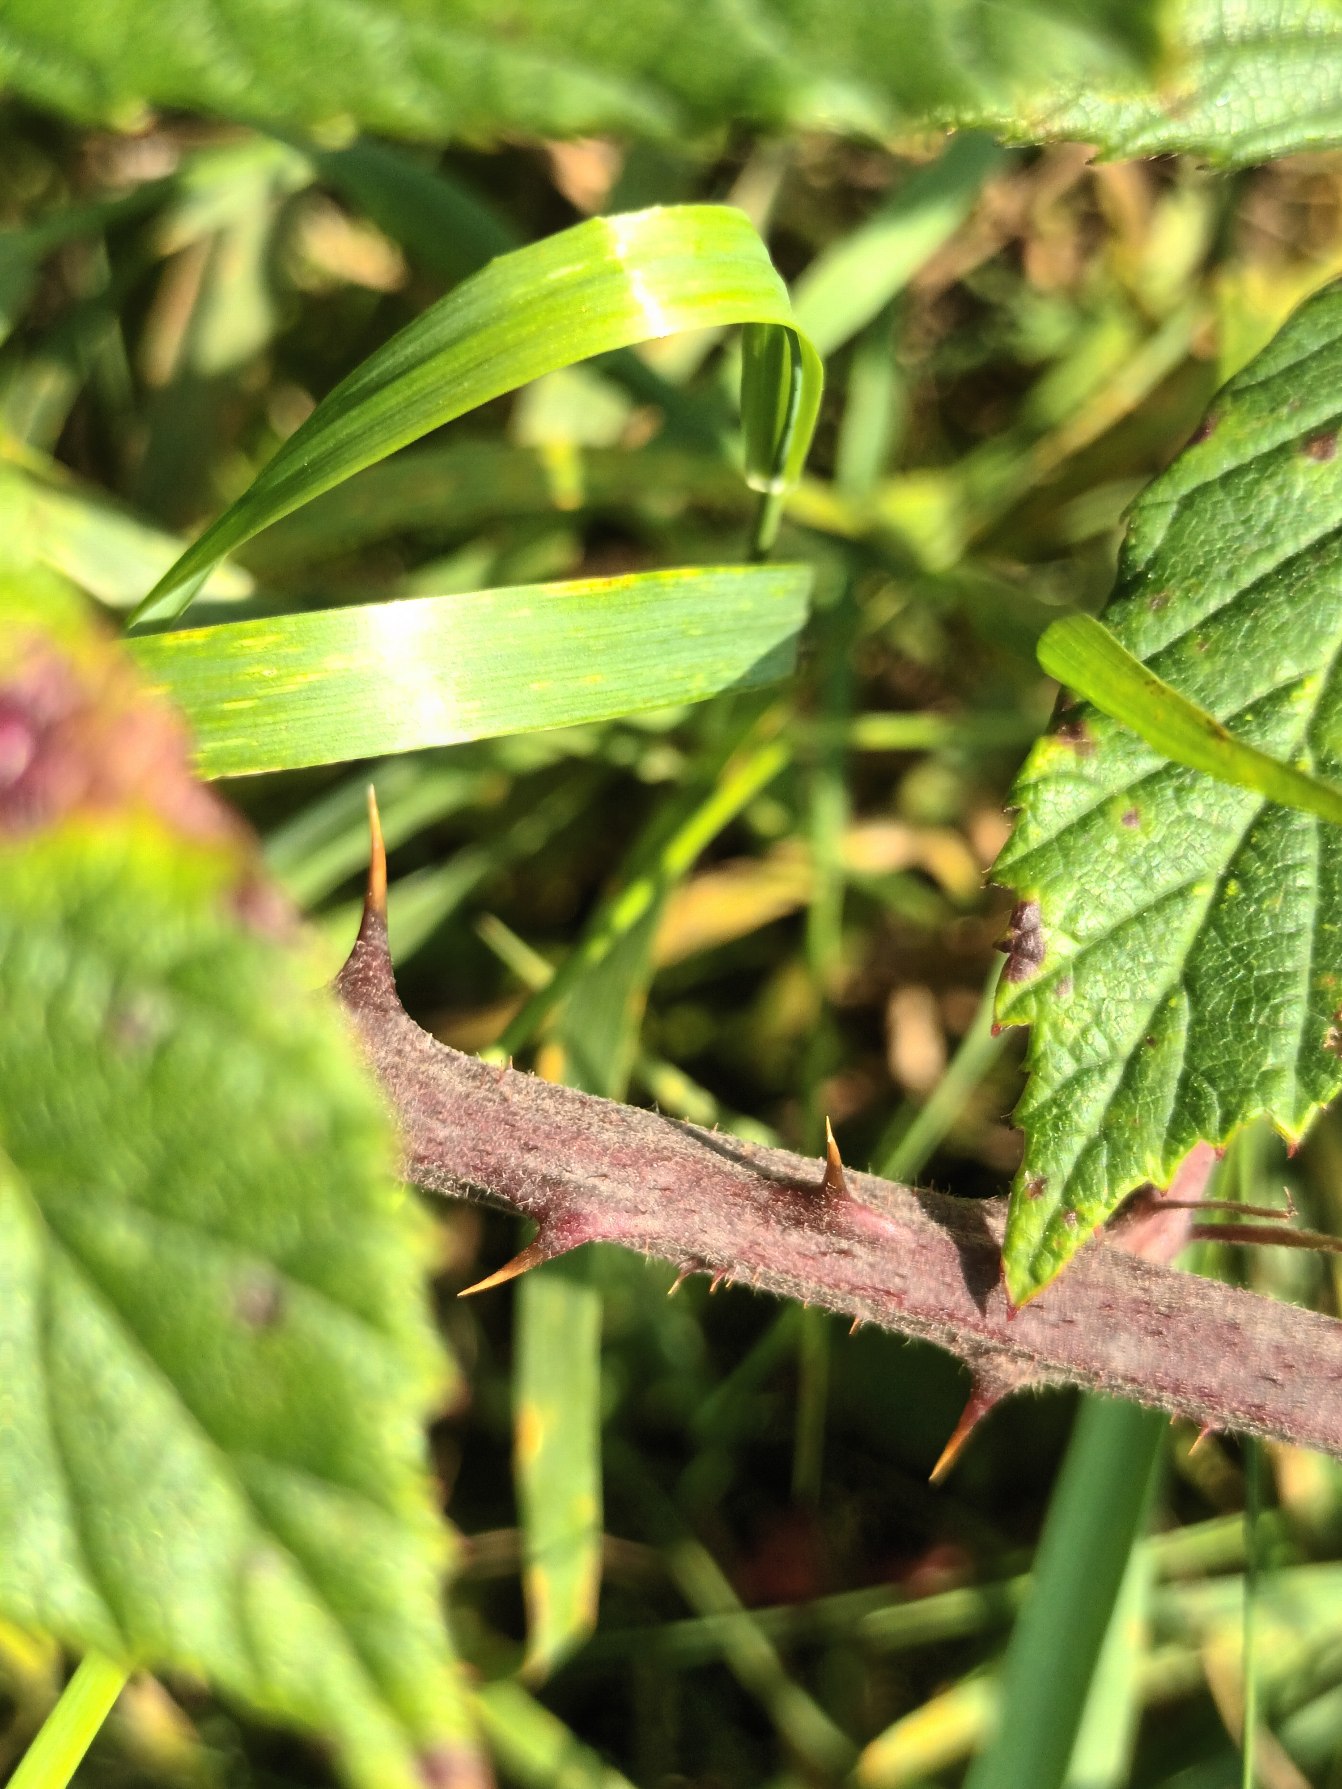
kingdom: Plantae
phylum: Tracheophyta
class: Magnoliopsida
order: Rosales
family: Rosaceae
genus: Rubus
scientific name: Rubus radula
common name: Rasperu brombær
